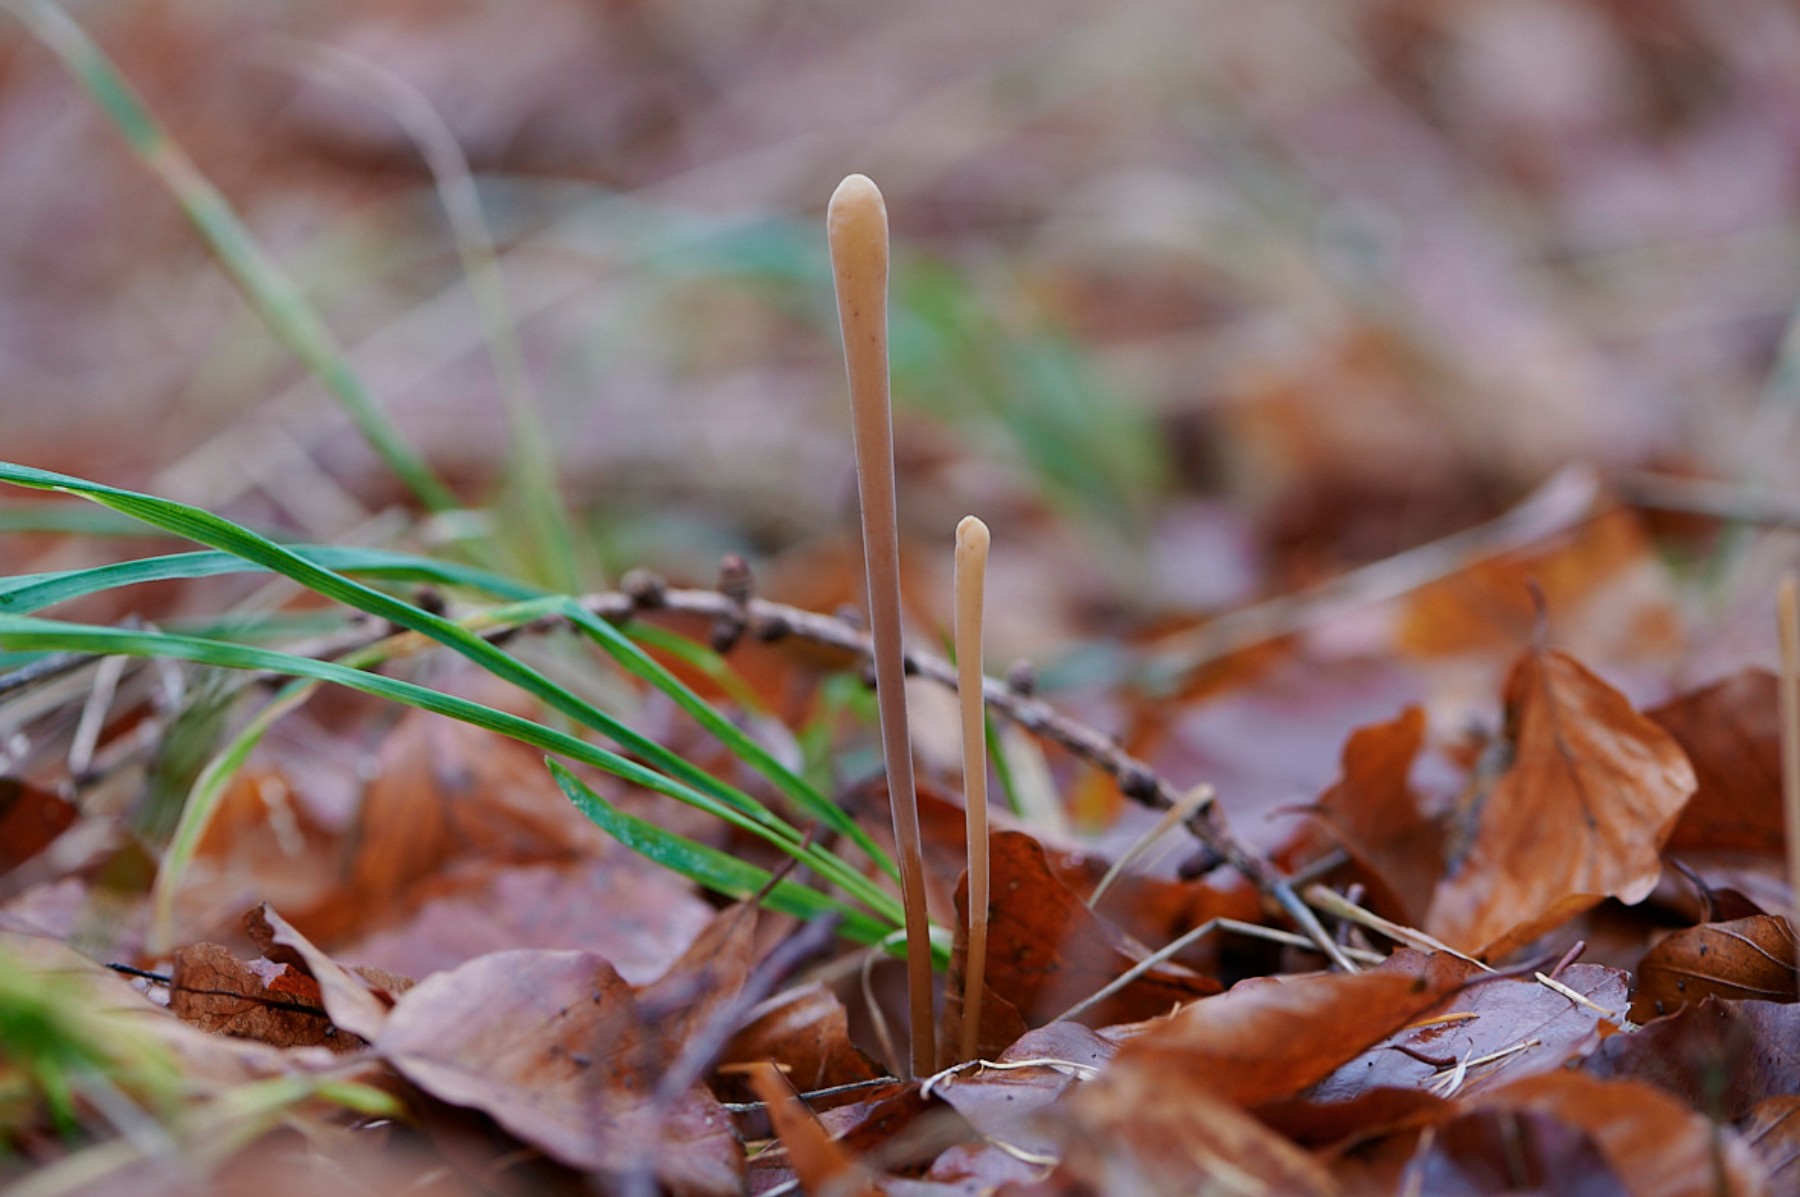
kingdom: Fungi
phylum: Basidiomycota
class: Agaricomycetes
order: Agaricales
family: Typhulaceae
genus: Typhula
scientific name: Typhula fistulosa
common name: pibet rørkølle
